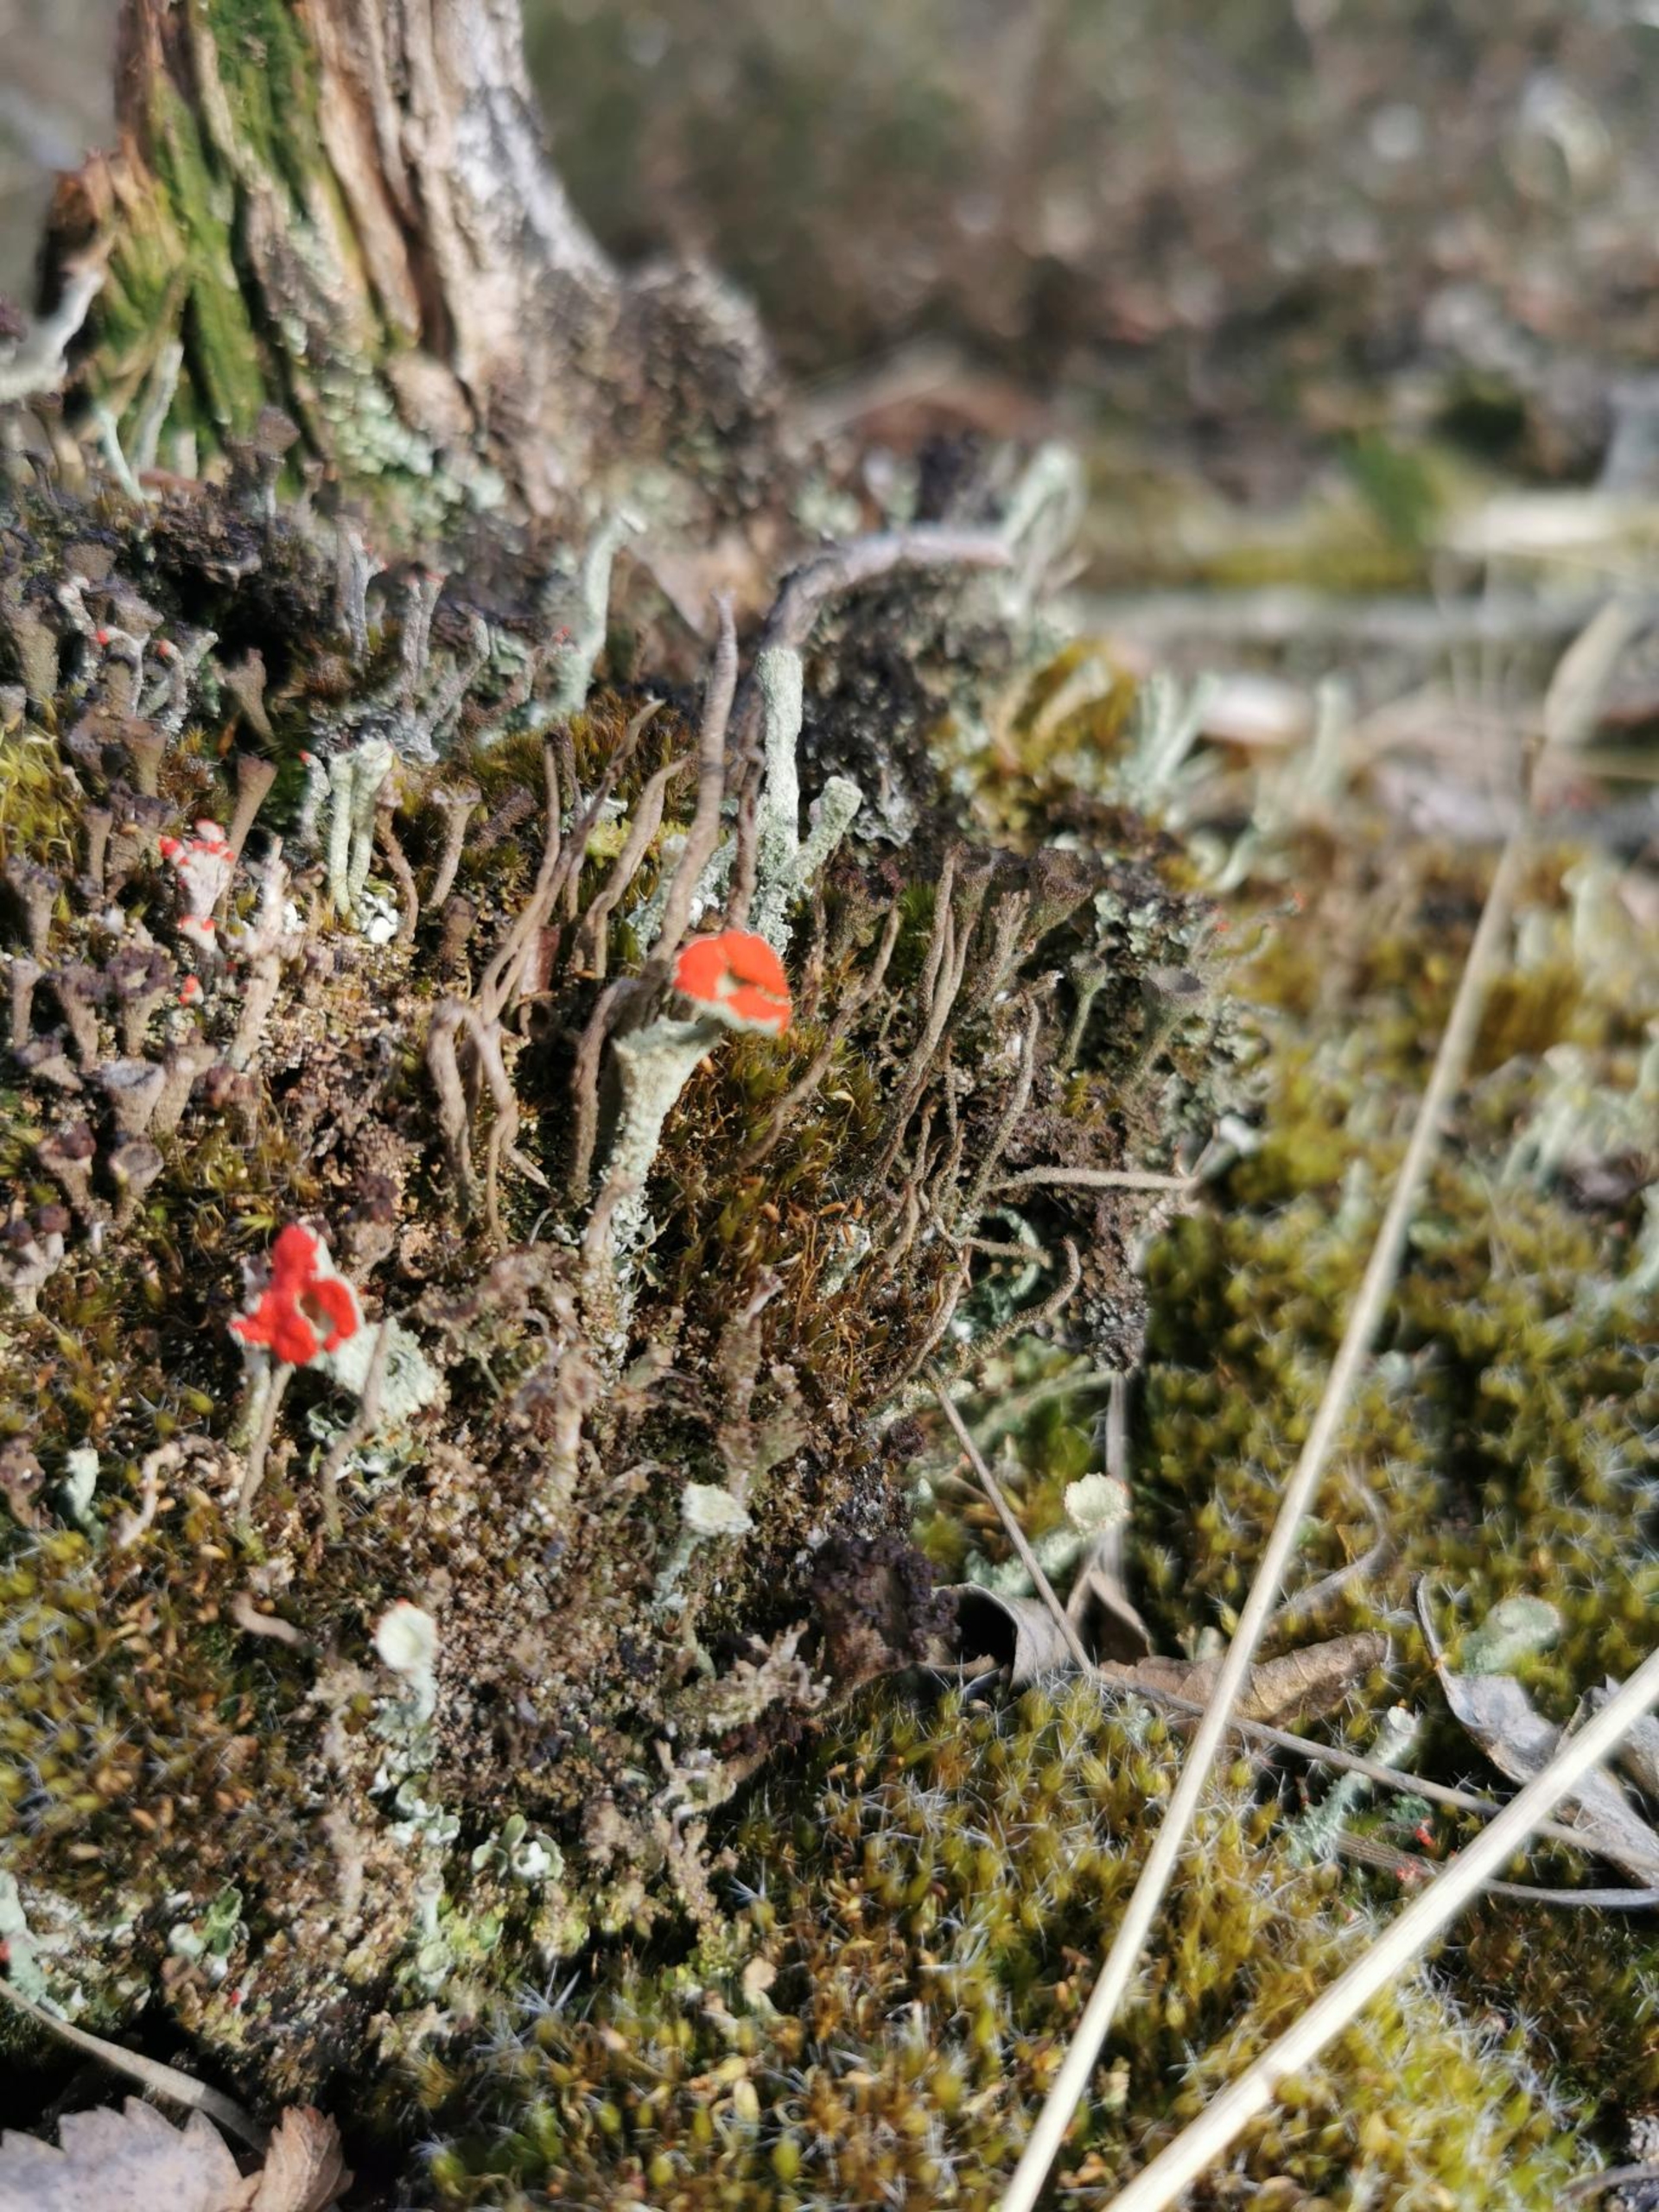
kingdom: Fungi
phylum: Ascomycota
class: Lecanoromycetes
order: Lecanorales
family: Cladoniaceae
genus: Cladonia
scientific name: Cladonia
